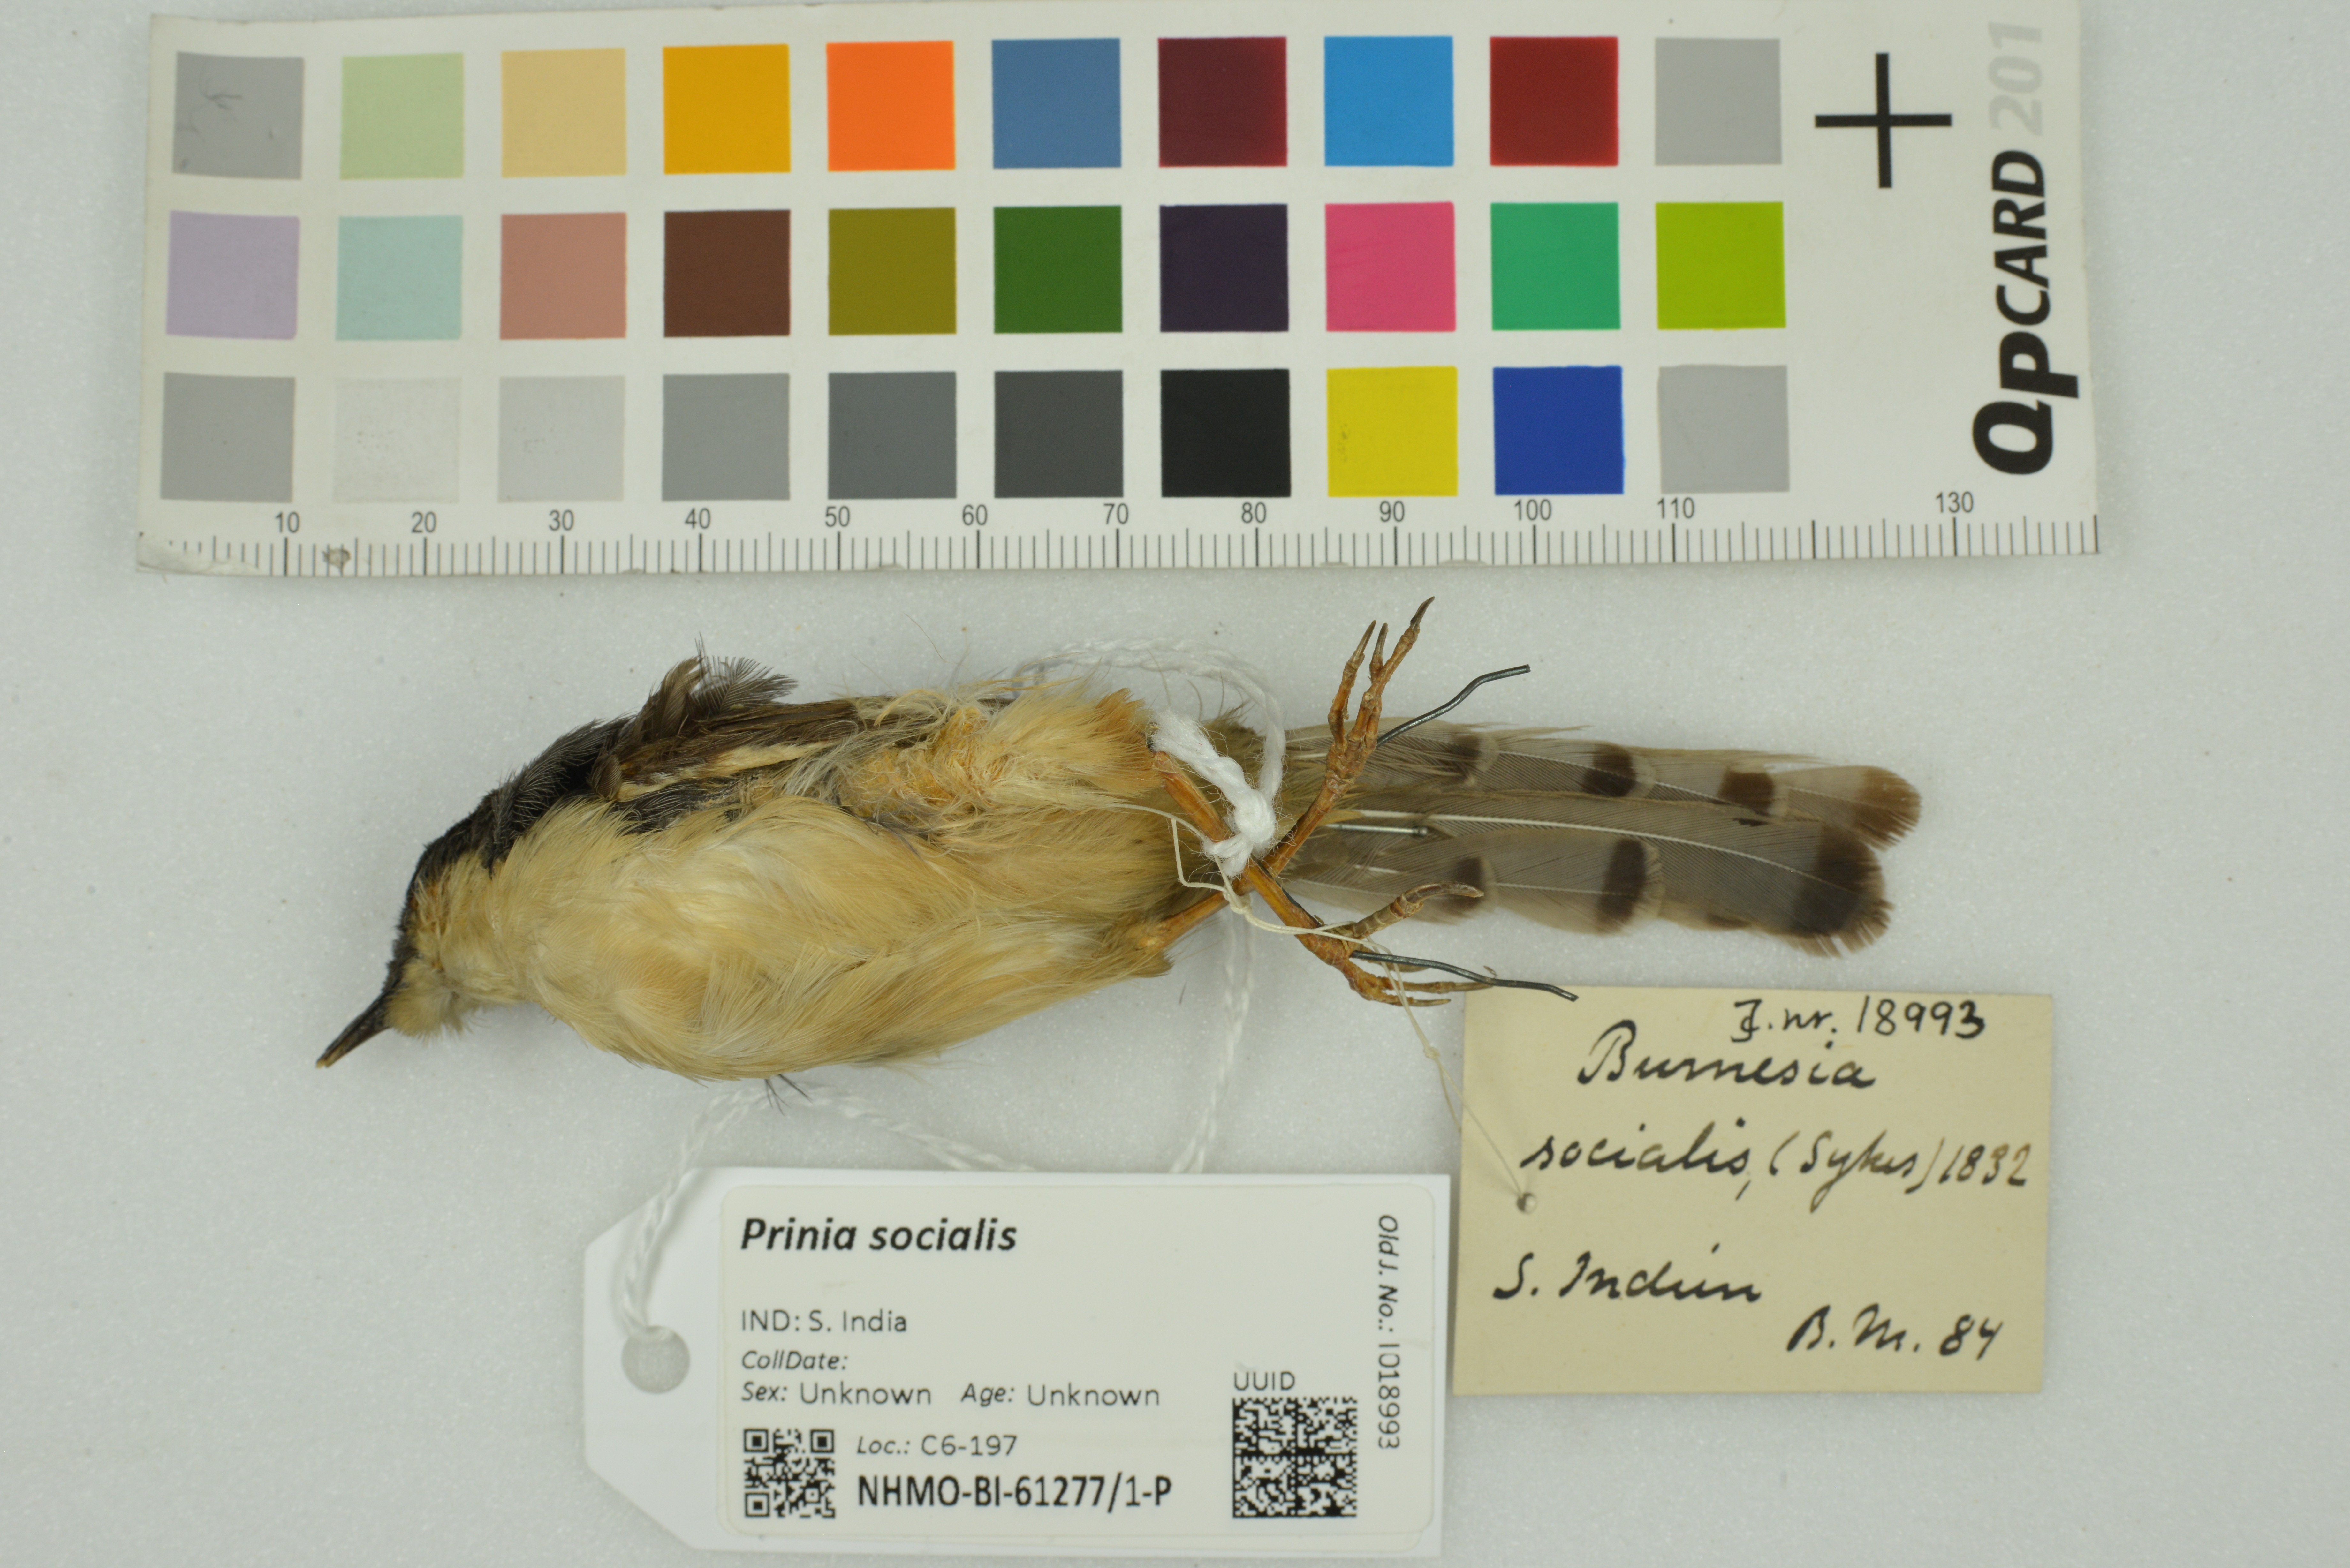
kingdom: Animalia
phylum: Chordata
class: Aves
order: Passeriformes
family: Cisticolidae
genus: Prinia
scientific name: Prinia socialis
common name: Ashy prinia
